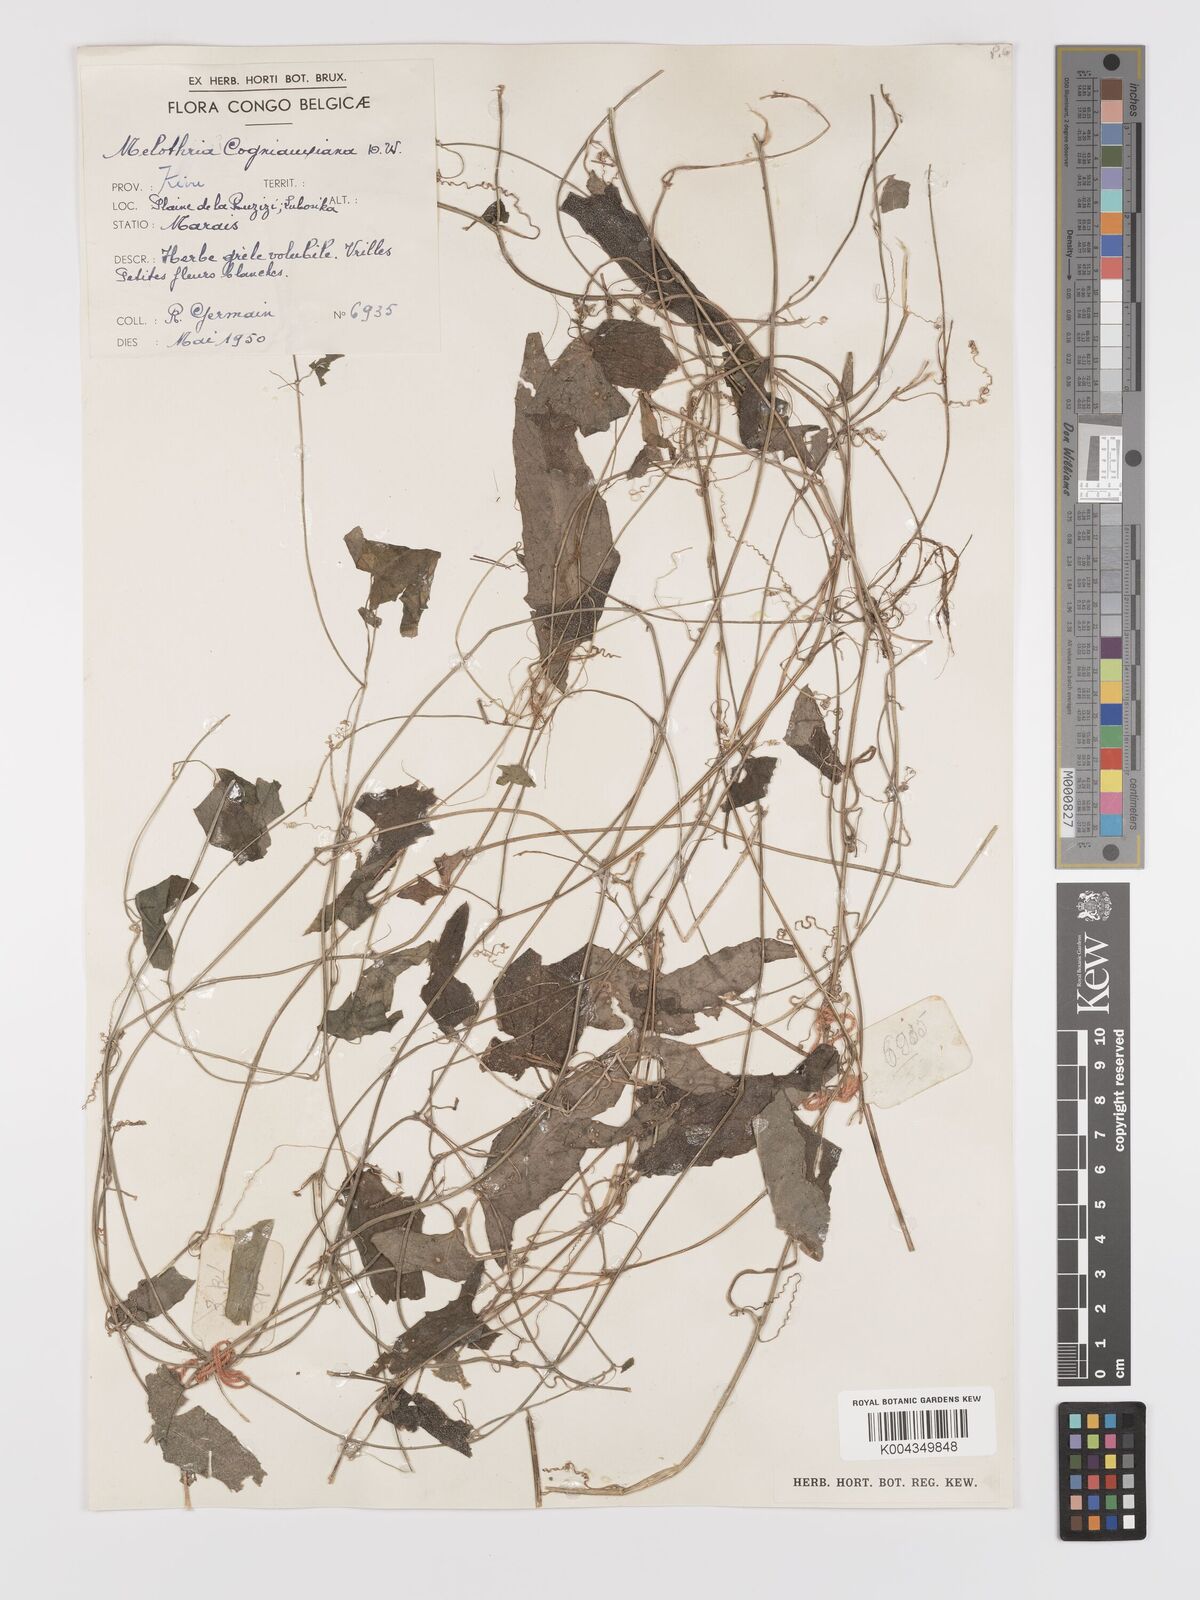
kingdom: Plantae
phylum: Tracheophyta
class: Magnoliopsida
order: Cucurbitales
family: Cucurbitaceae
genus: Zehneria
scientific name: Zehneria minutiflora
